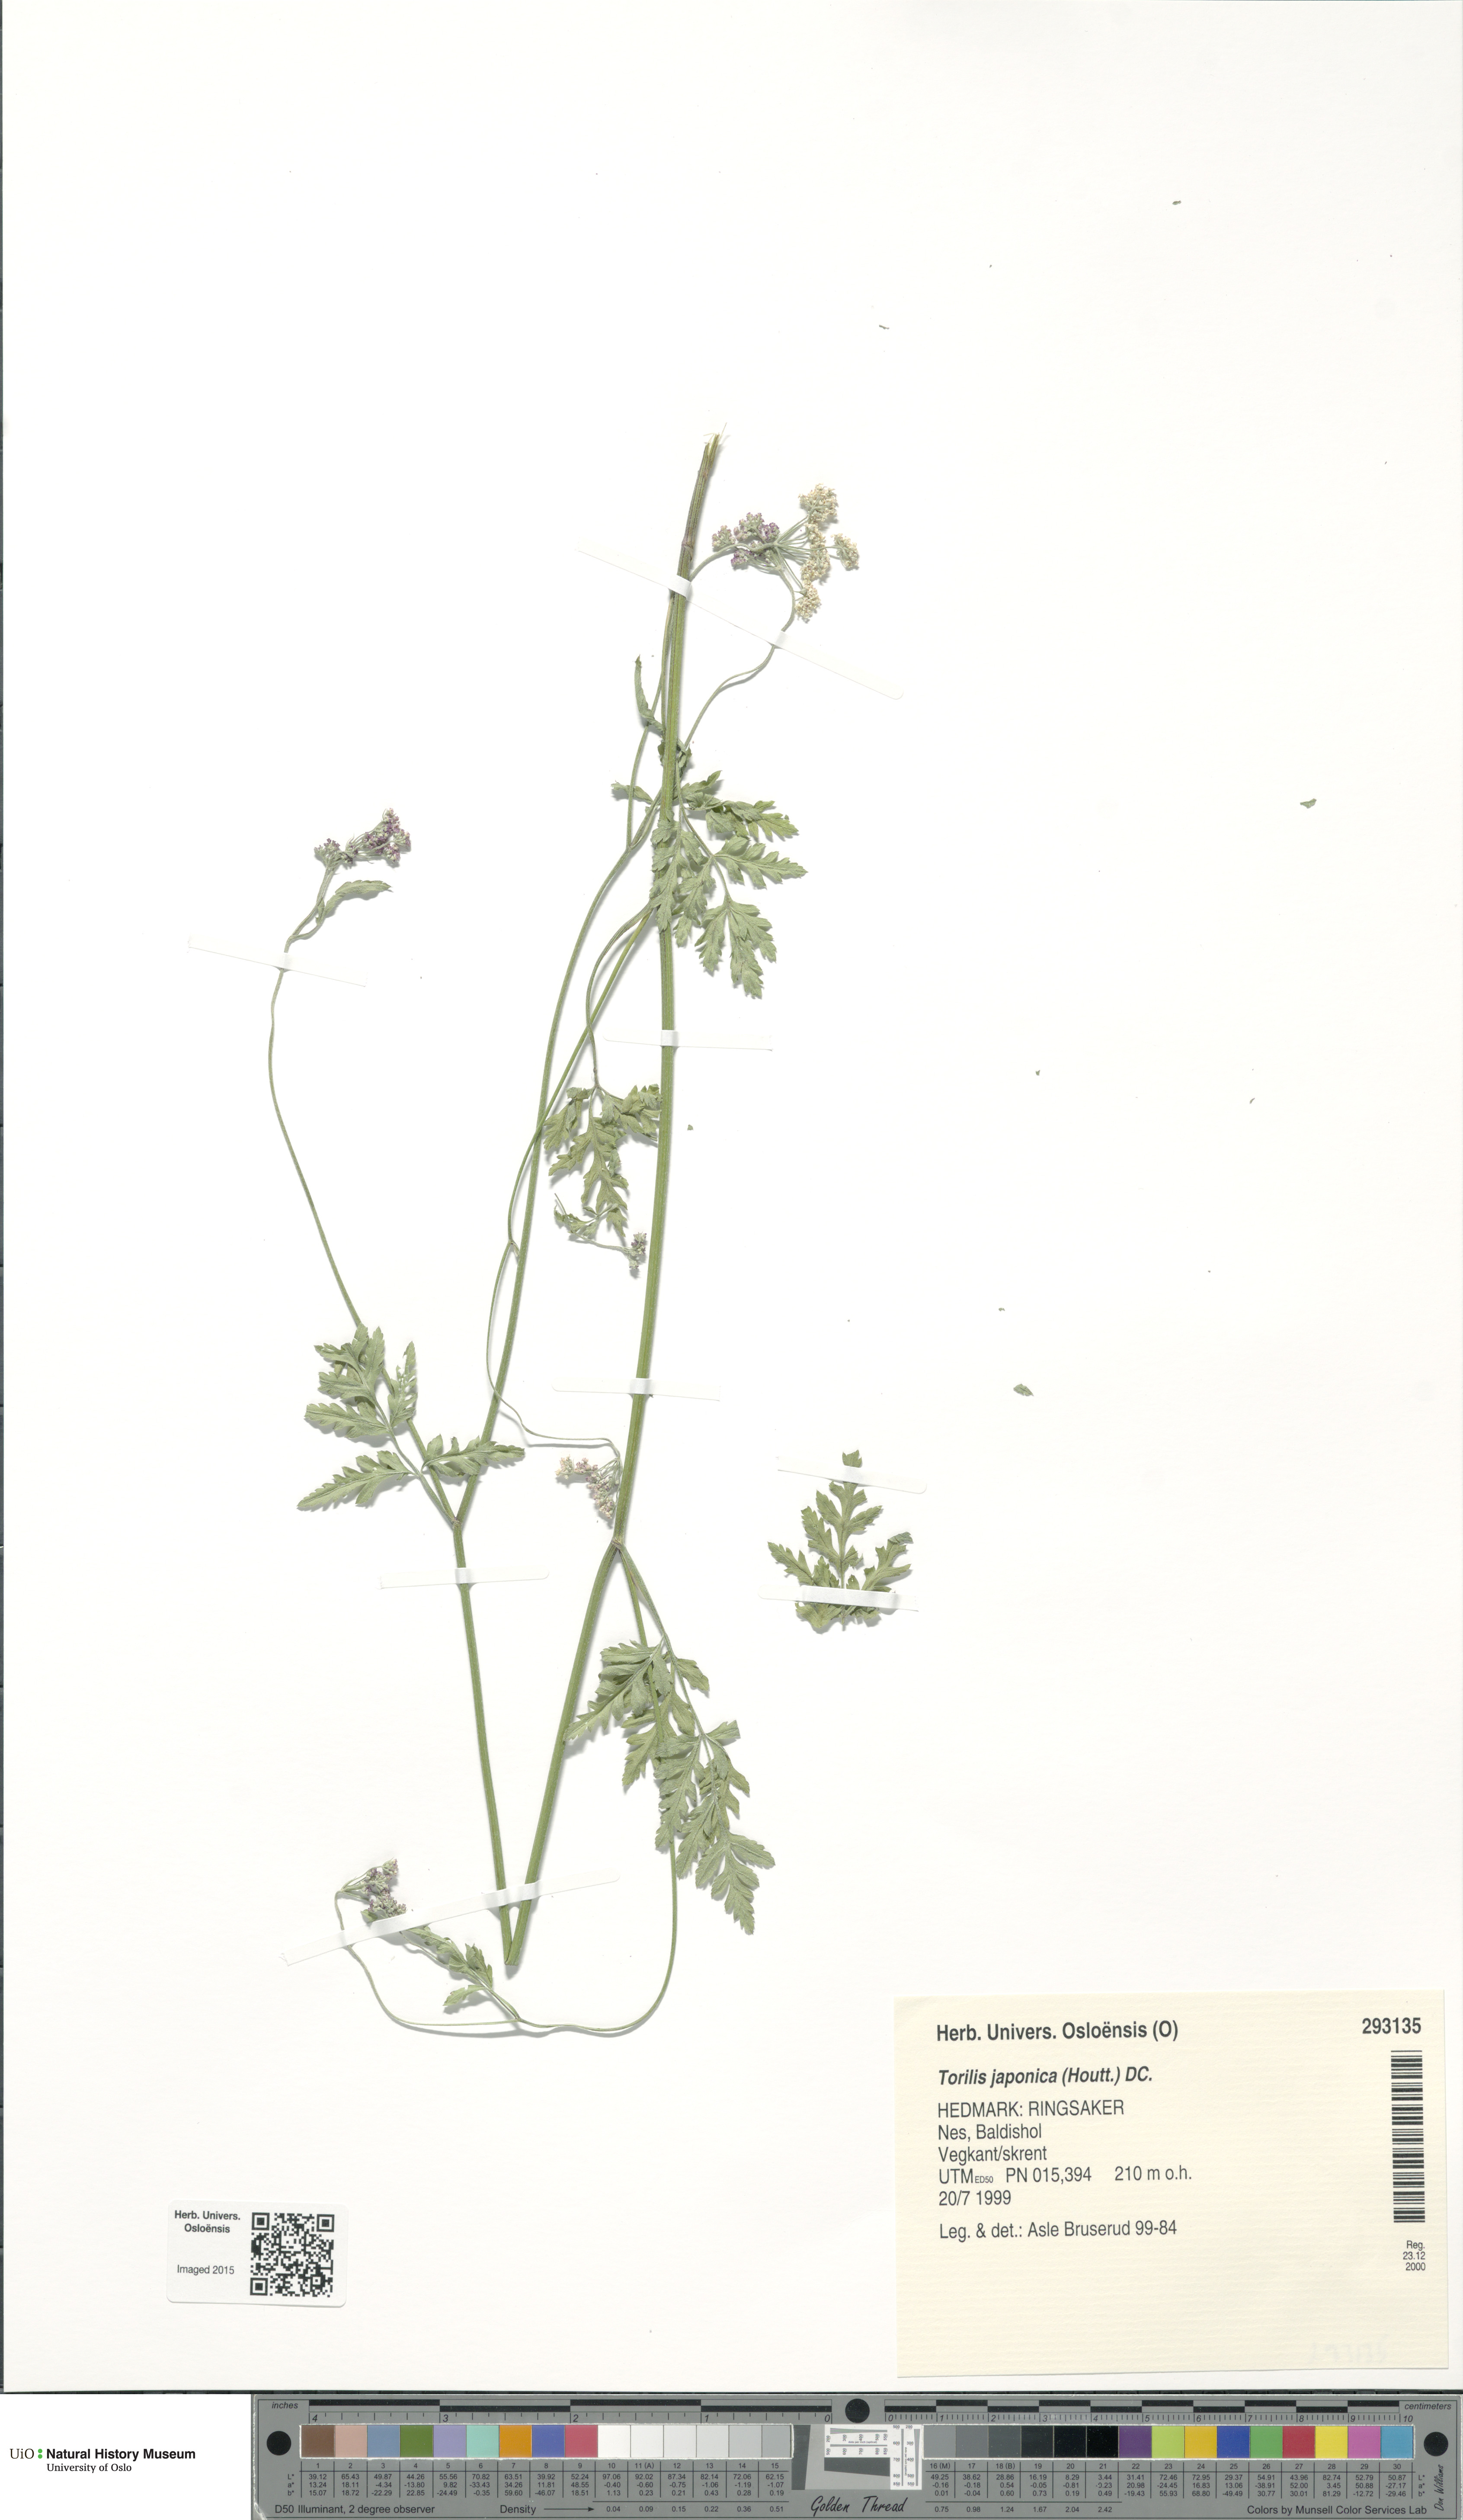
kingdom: Plantae
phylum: Tracheophyta
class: Magnoliopsida
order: Apiales
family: Apiaceae
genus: Torilis
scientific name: Torilis japonica
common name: Upright hedge-parsley
